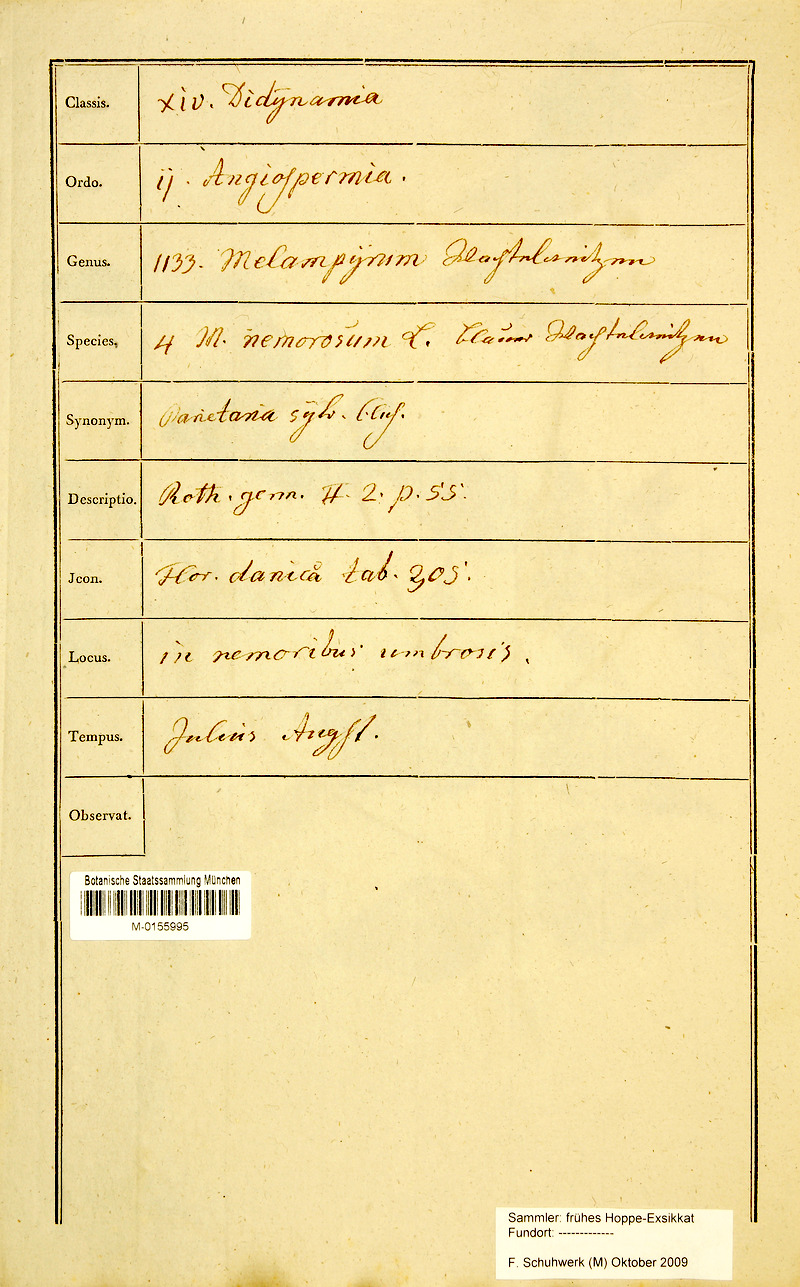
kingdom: Plantae
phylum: Tracheophyta
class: Magnoliopsida
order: Lamiales
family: Orobanchaceae
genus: Melampyrum
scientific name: Melampyrum nemorosum
